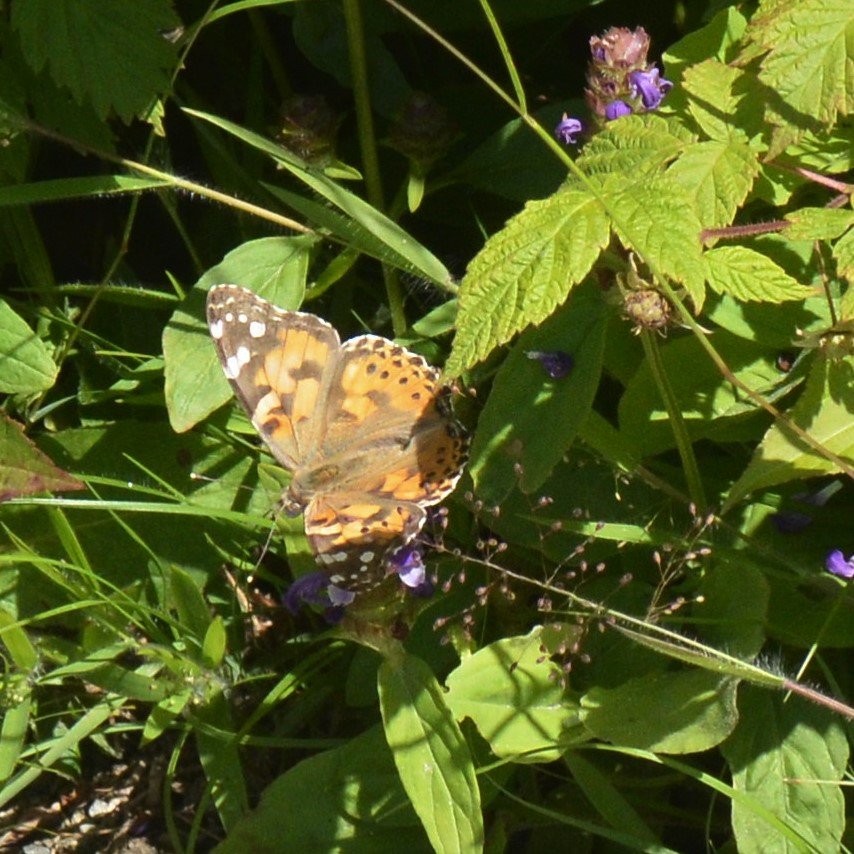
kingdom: Animalia
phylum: Arthropoda
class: Insecta
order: Lepidoptera
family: Nymphalidae
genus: Vanessa
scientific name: Vanessa cardui
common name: Painted Lady
